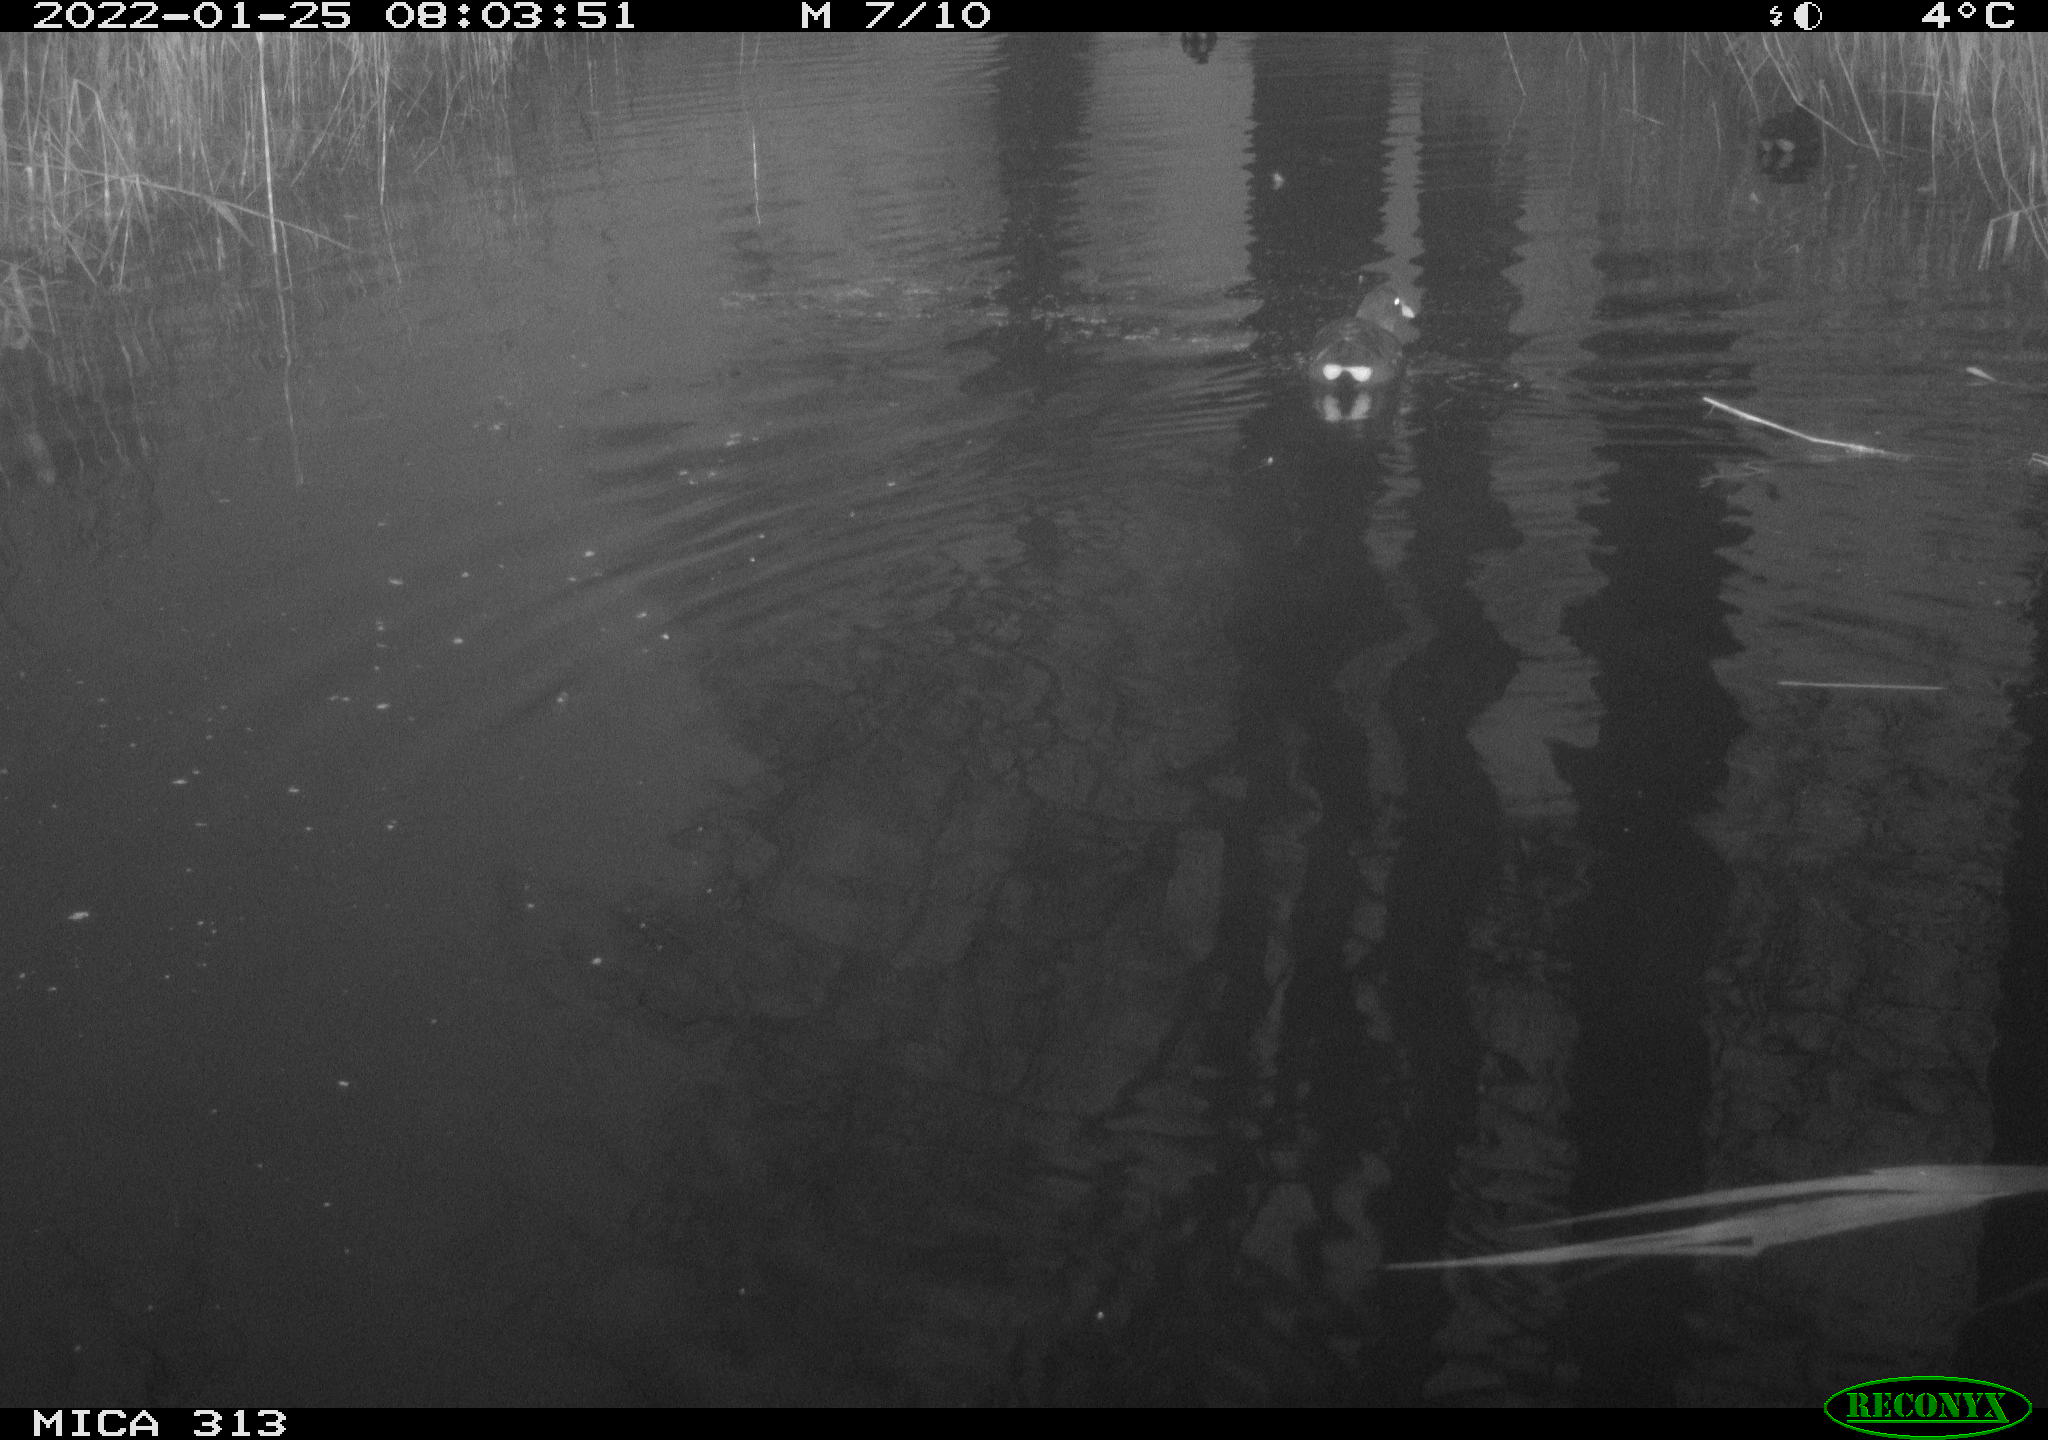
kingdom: Animalia
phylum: Chordata
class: Aves
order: Anseriformes
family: Anatidae
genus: Anas
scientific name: Anas
